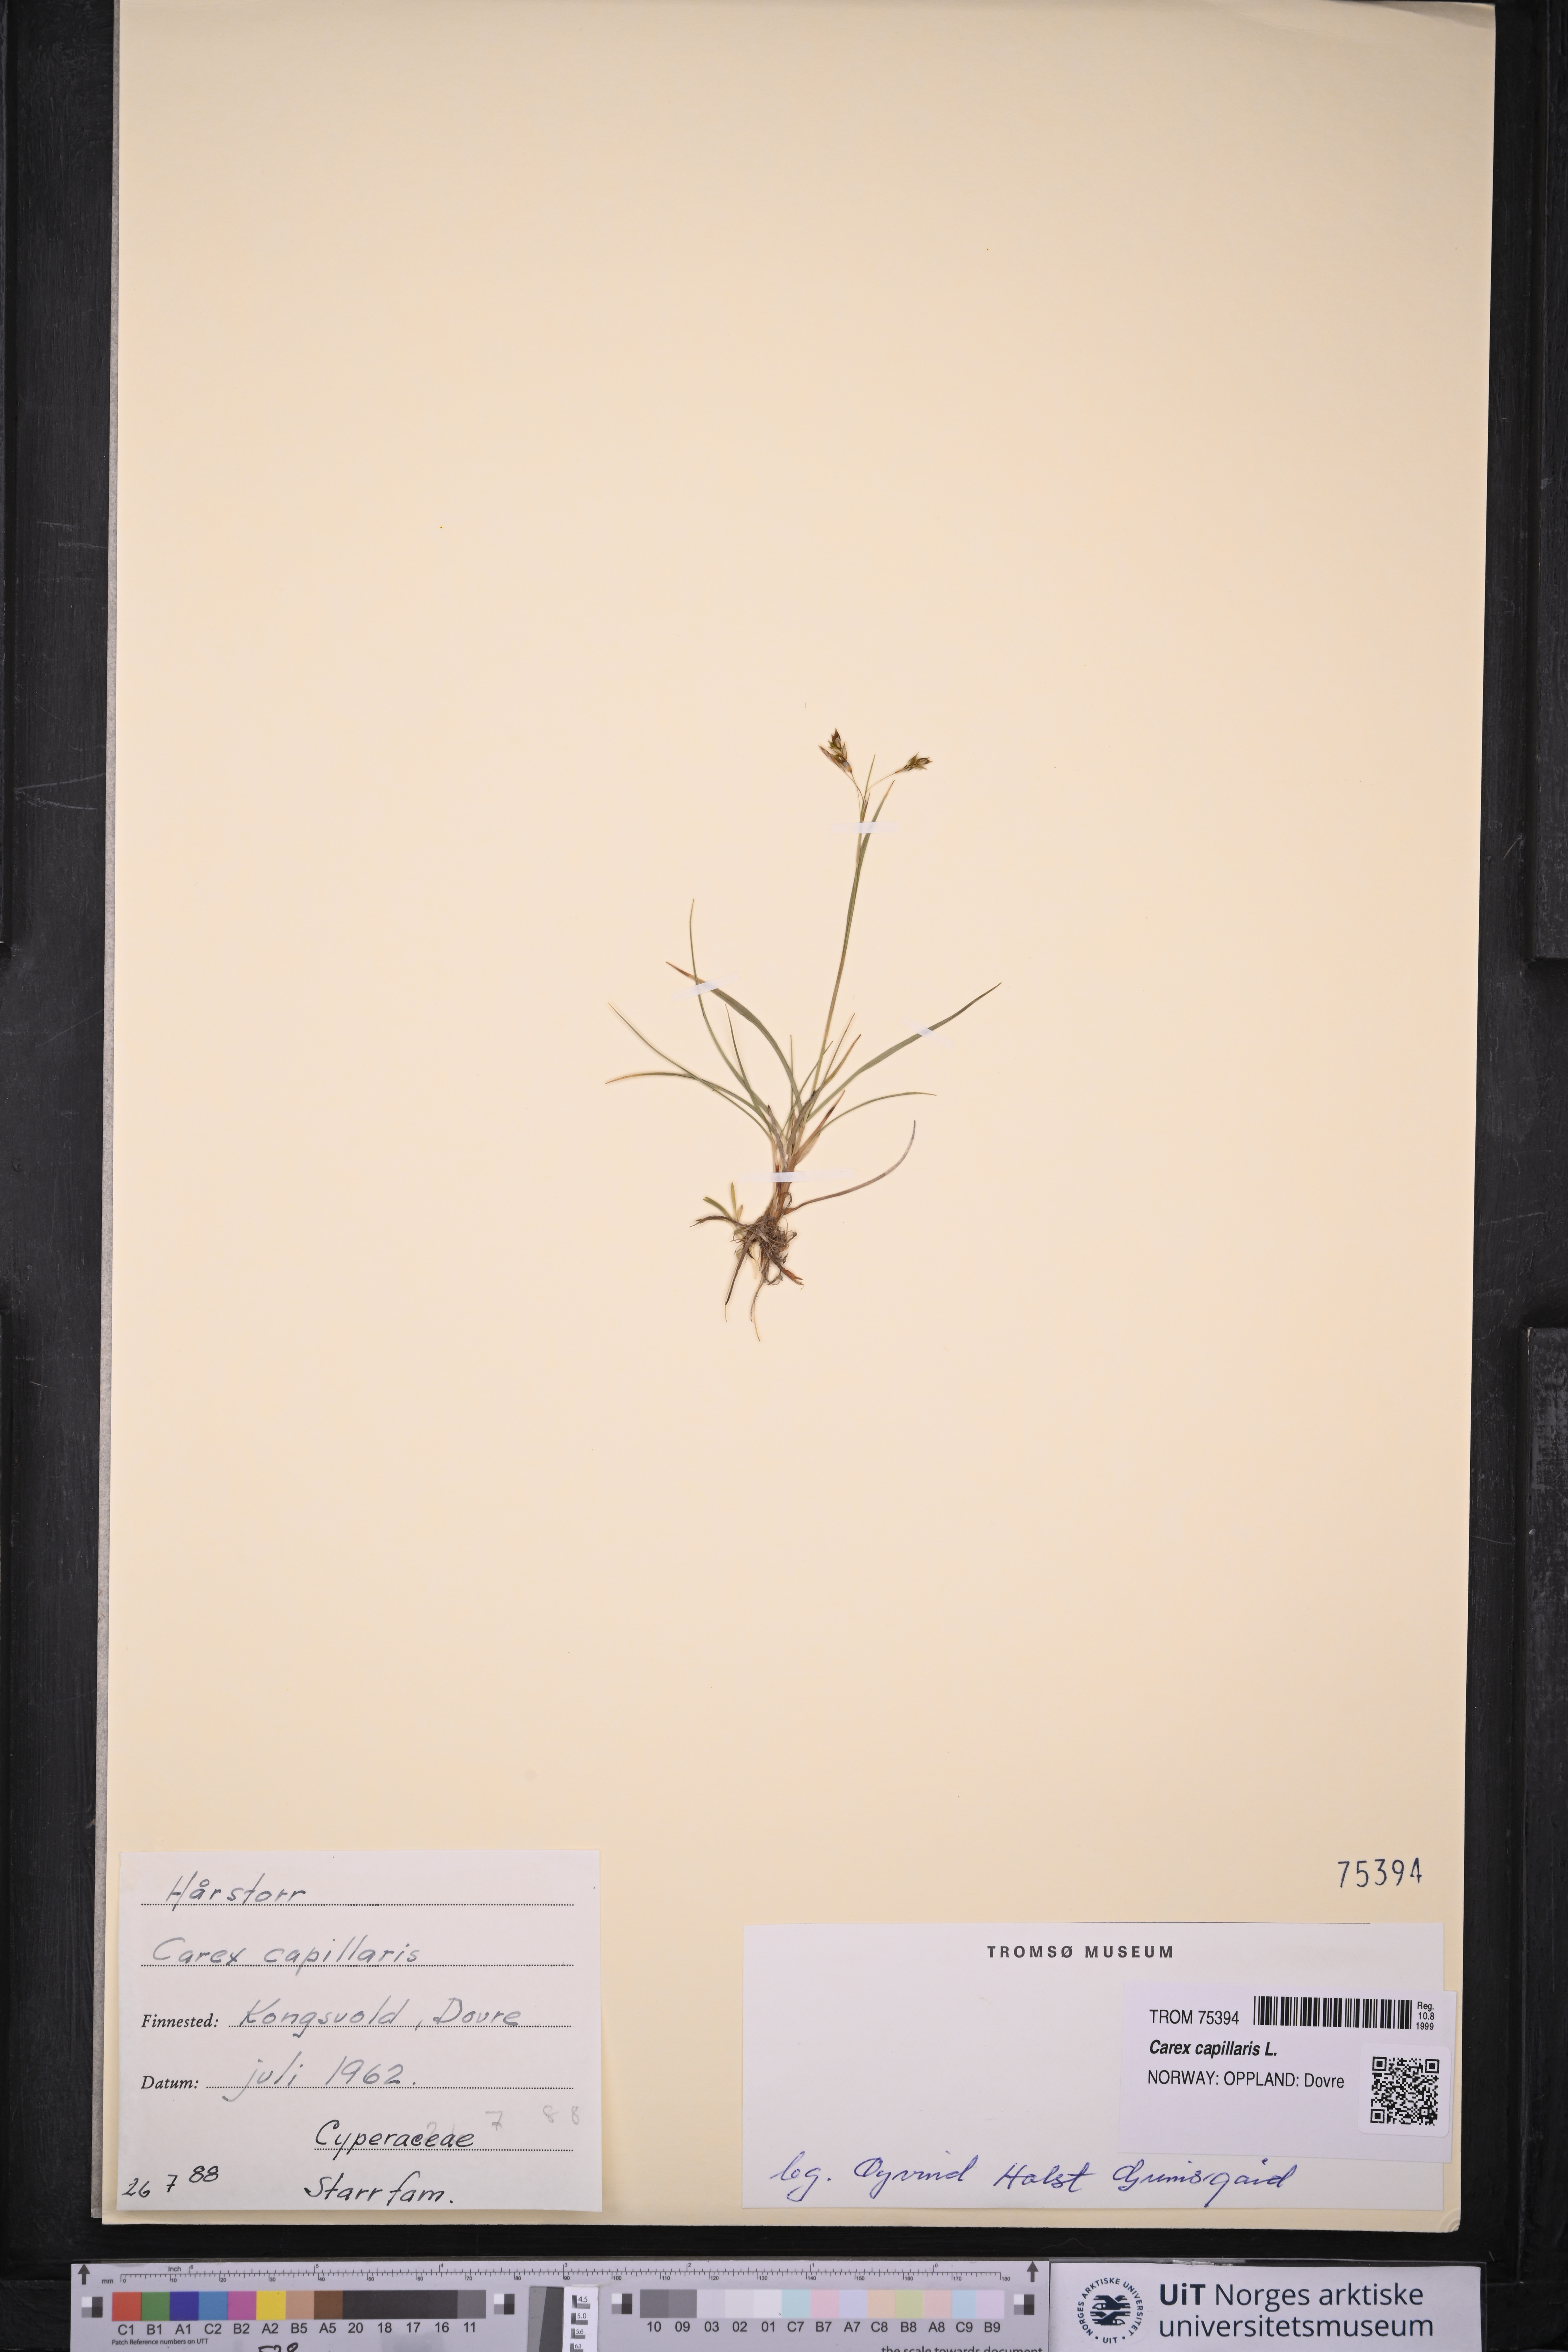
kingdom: Plantae
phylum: Tracheophyta
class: Liliopsida
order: Poales
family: Cyperaceae
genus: Carex
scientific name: Carex capillaris
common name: Hair sedge
